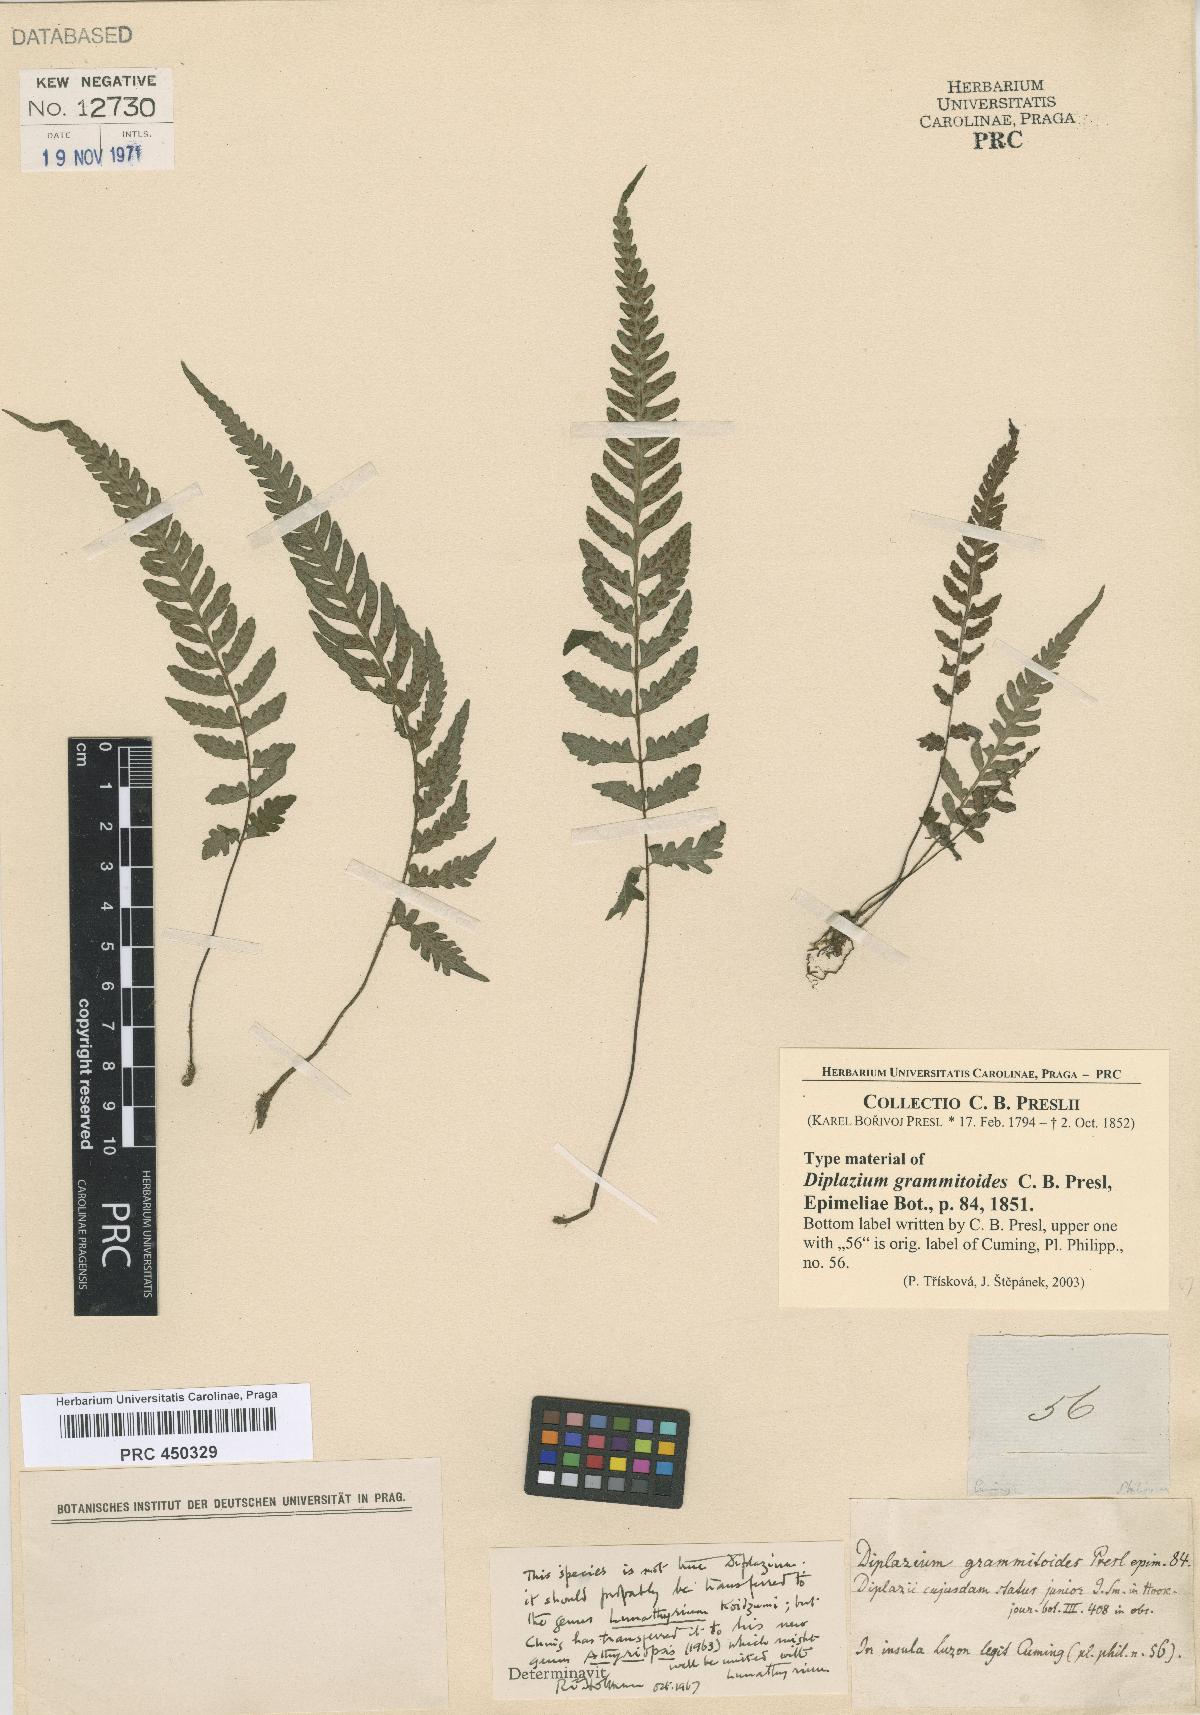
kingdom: Plantae
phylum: Tracheophyta
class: Polypodiopsida
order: Polypodiales
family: Athyriaceae
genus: Diplazium
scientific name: Diplazium
